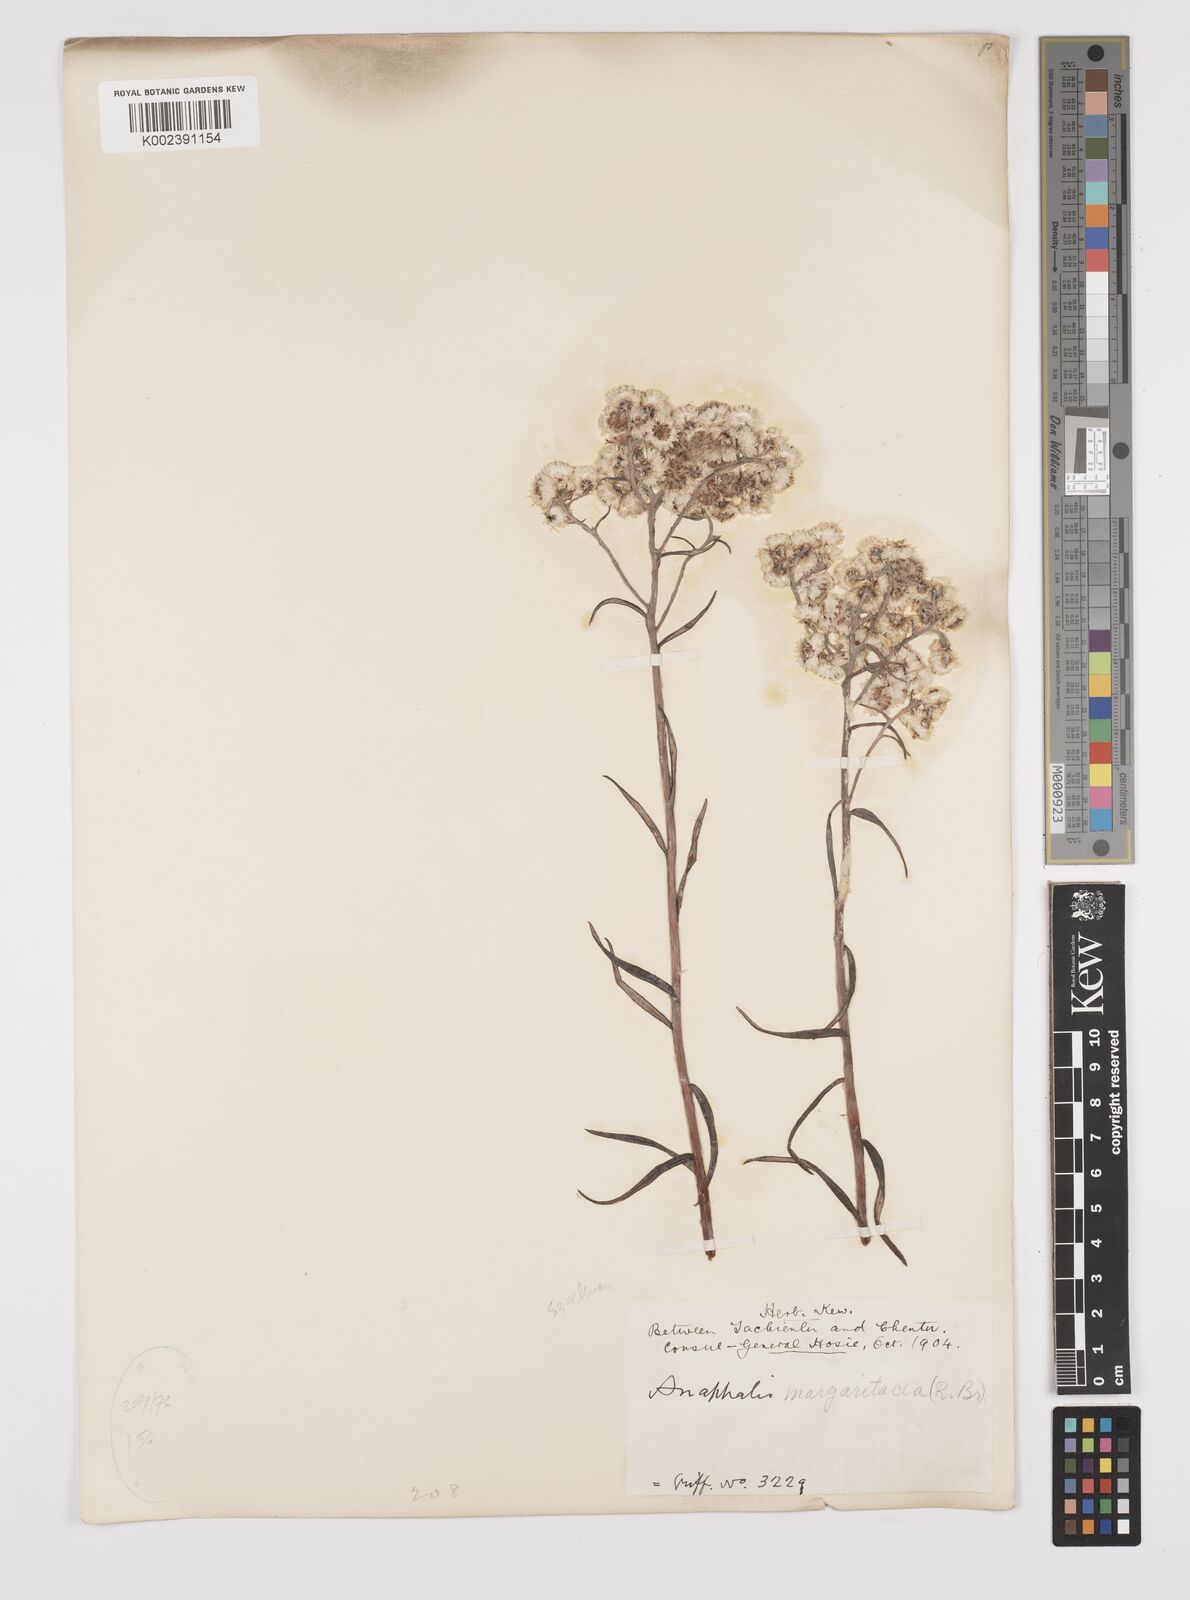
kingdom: Plantae
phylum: Tracheophyta
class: Magnoliopsida
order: Asterales
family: Asteraceae
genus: Anaphalis
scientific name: Anaphalis margaritacea
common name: Pearly everlasting
